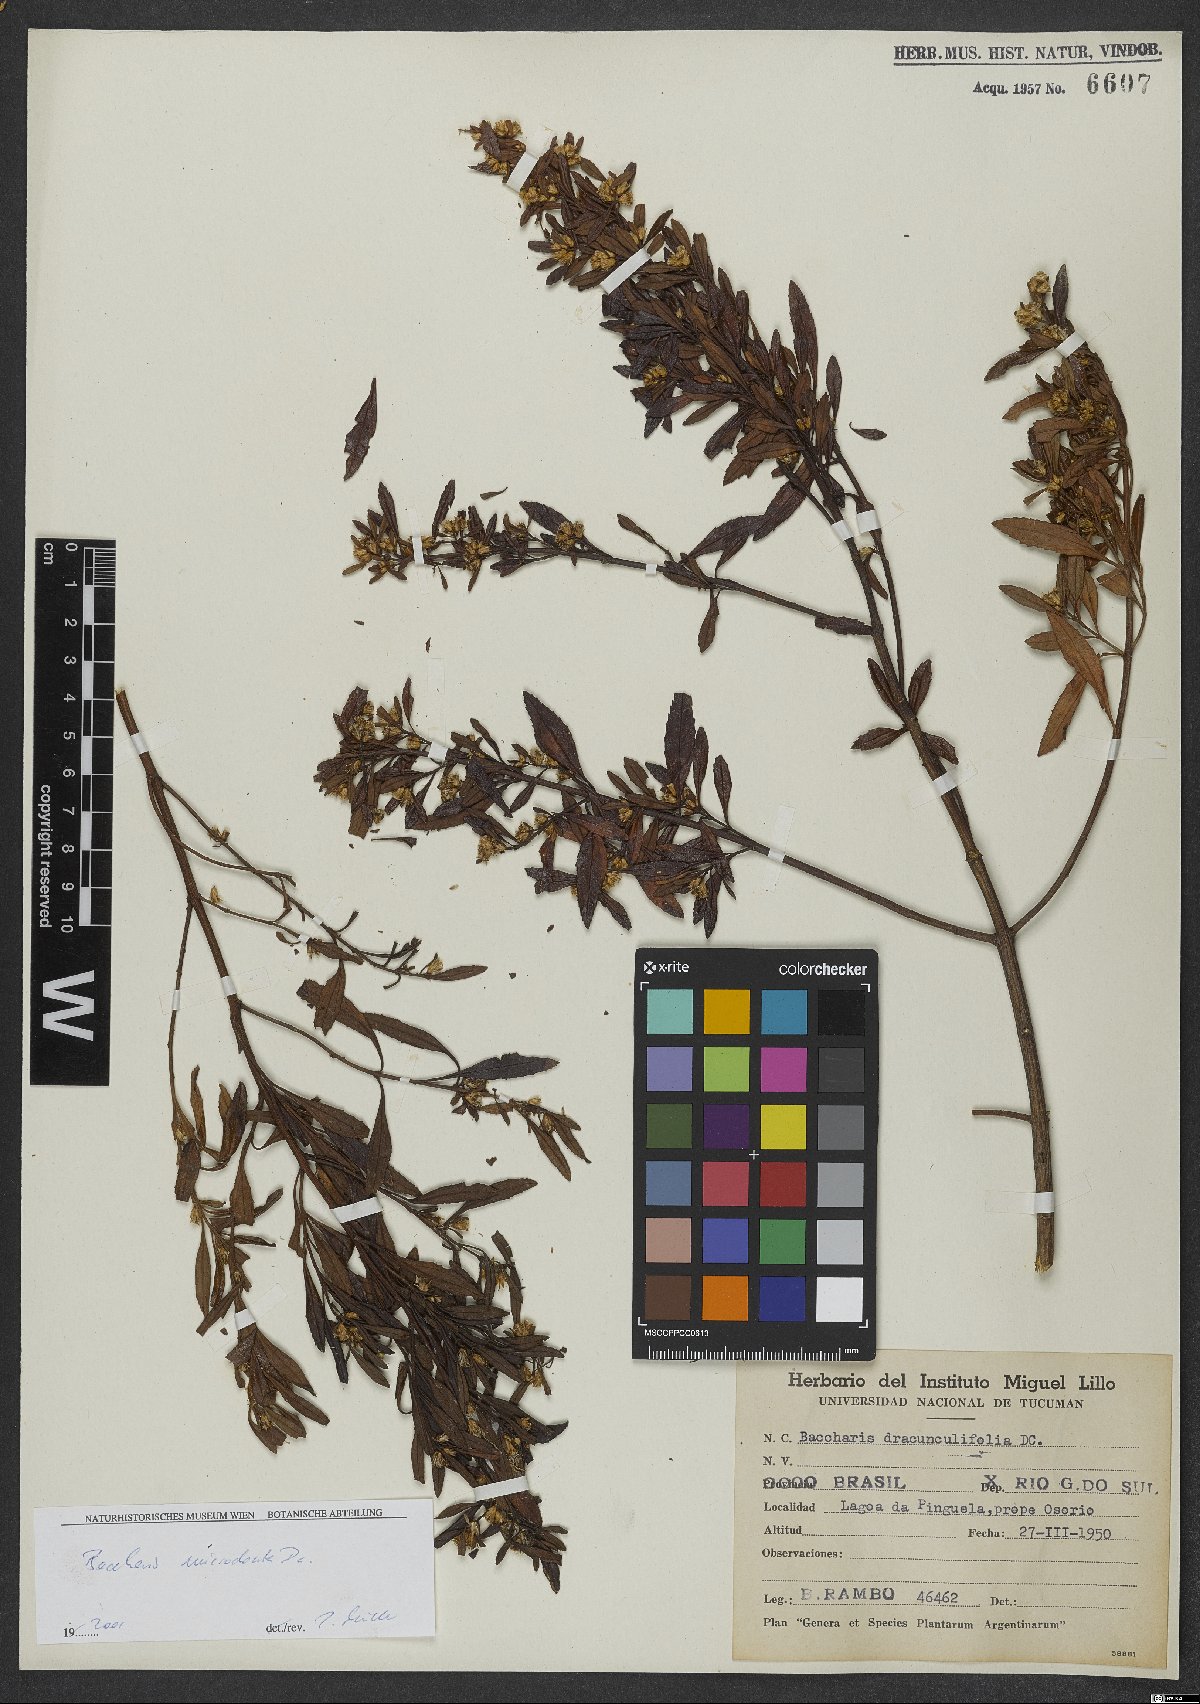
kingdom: Plantae
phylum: Tracheophyta
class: Magnoliopsida
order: Asterales
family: Asteraceae
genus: Baccharis
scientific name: Baccharis microdonta
